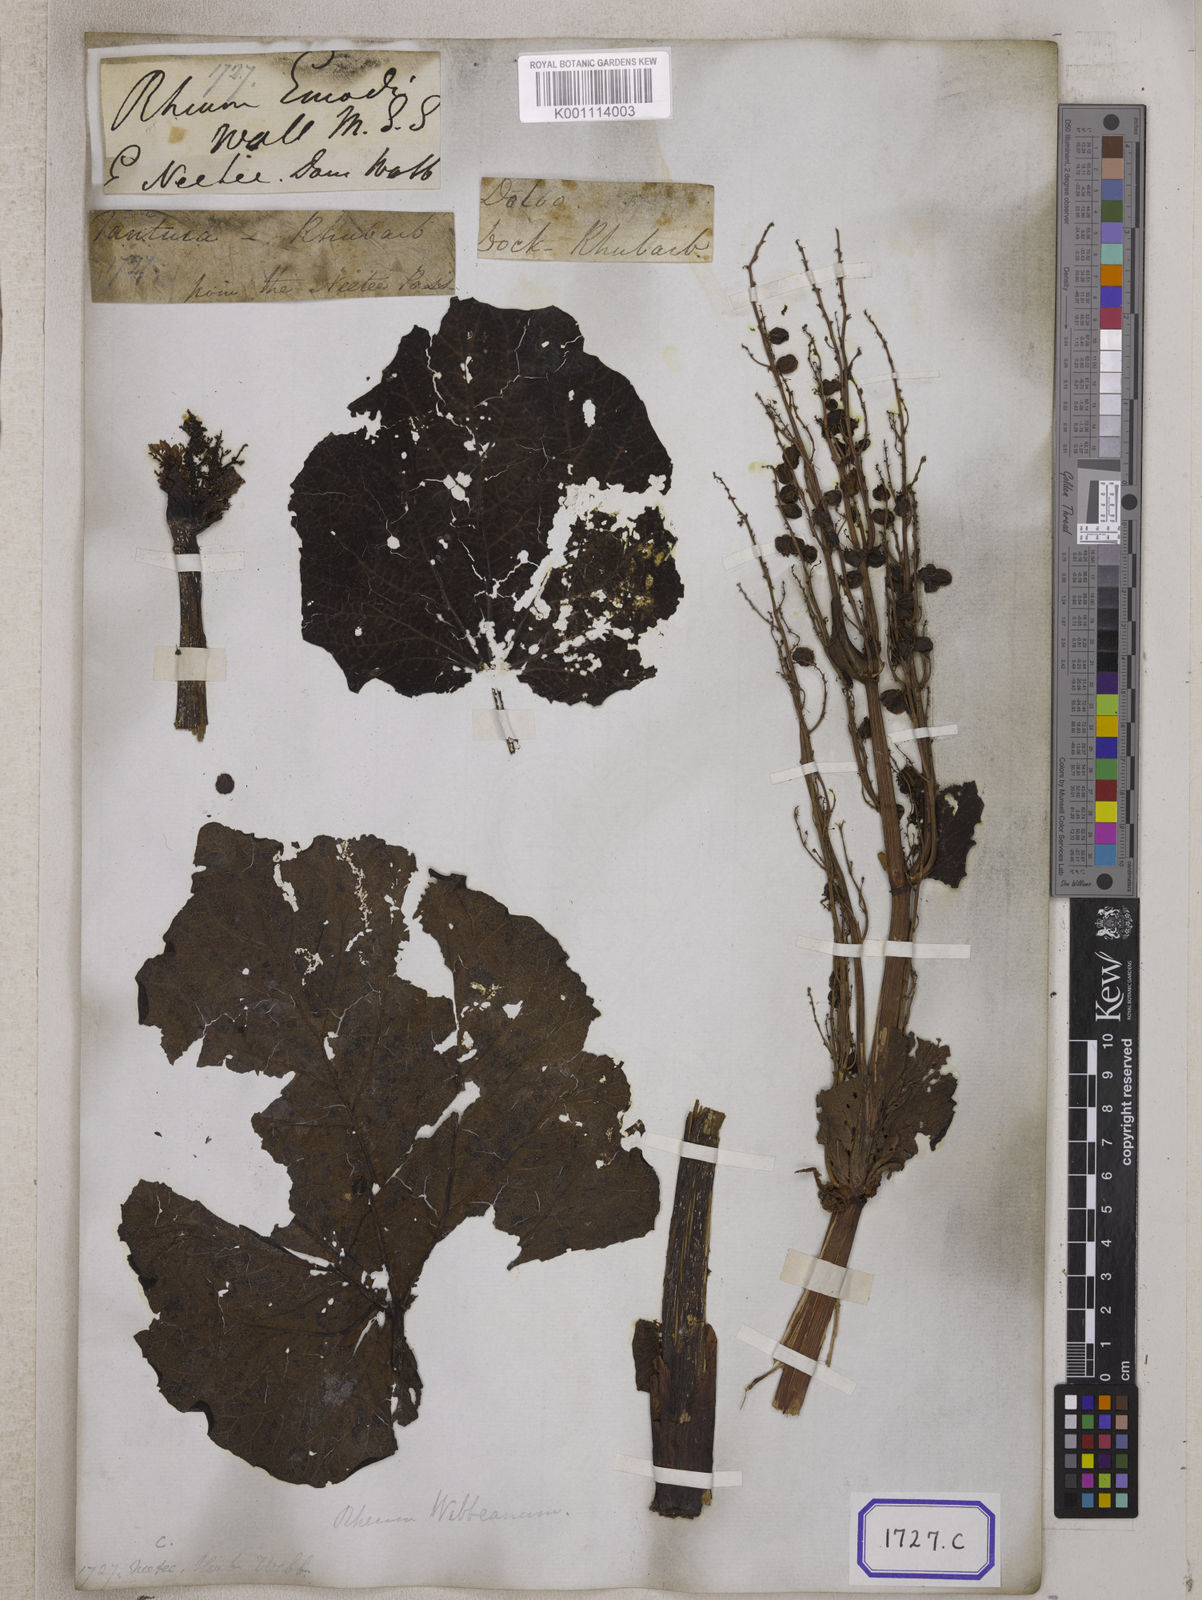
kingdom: Plantae
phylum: Tracheophyta
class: Magnoliopsida
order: Caryophyllales
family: Polygonaceae
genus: Rheum
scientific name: Rheum
